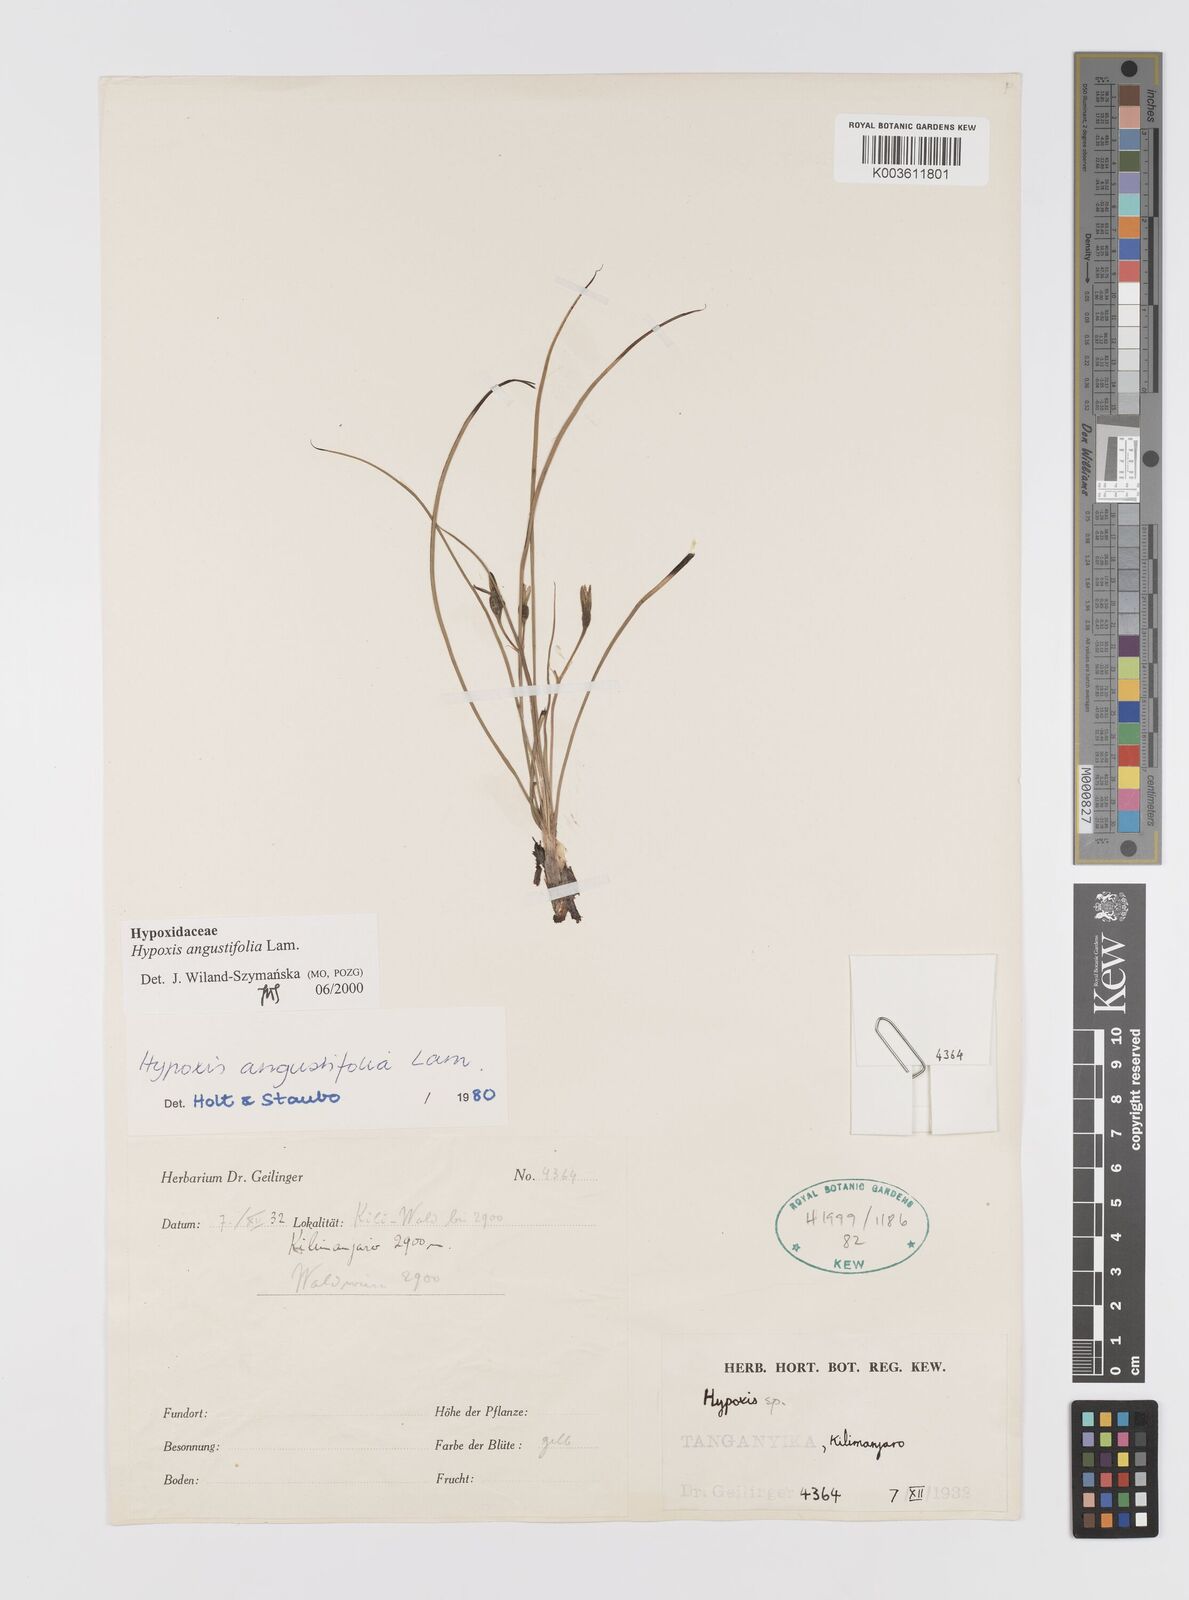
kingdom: Plantae
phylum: Tracheophyta
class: Liliopsida
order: Asparagales
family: Hypoxidaceae
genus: Hypoxis
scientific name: Hypoxis angustifolia
